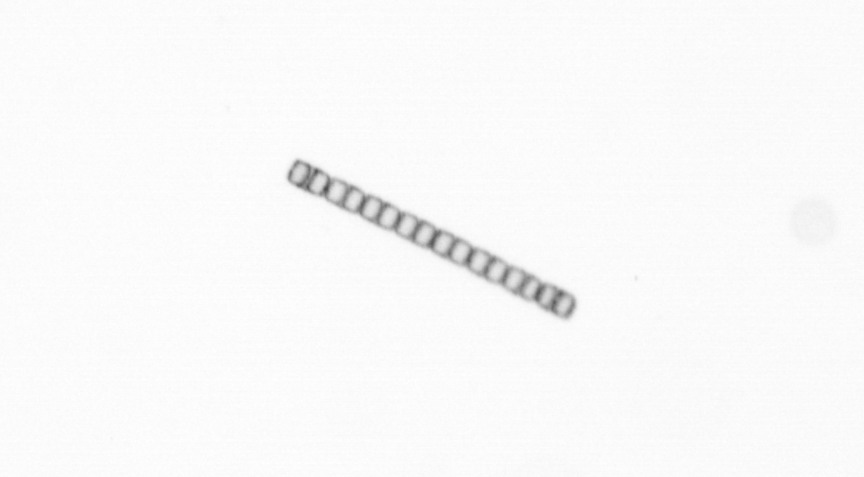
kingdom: Chromista
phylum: Ochrophyta
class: Bacillariophyceae
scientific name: Bacillariophyceae
